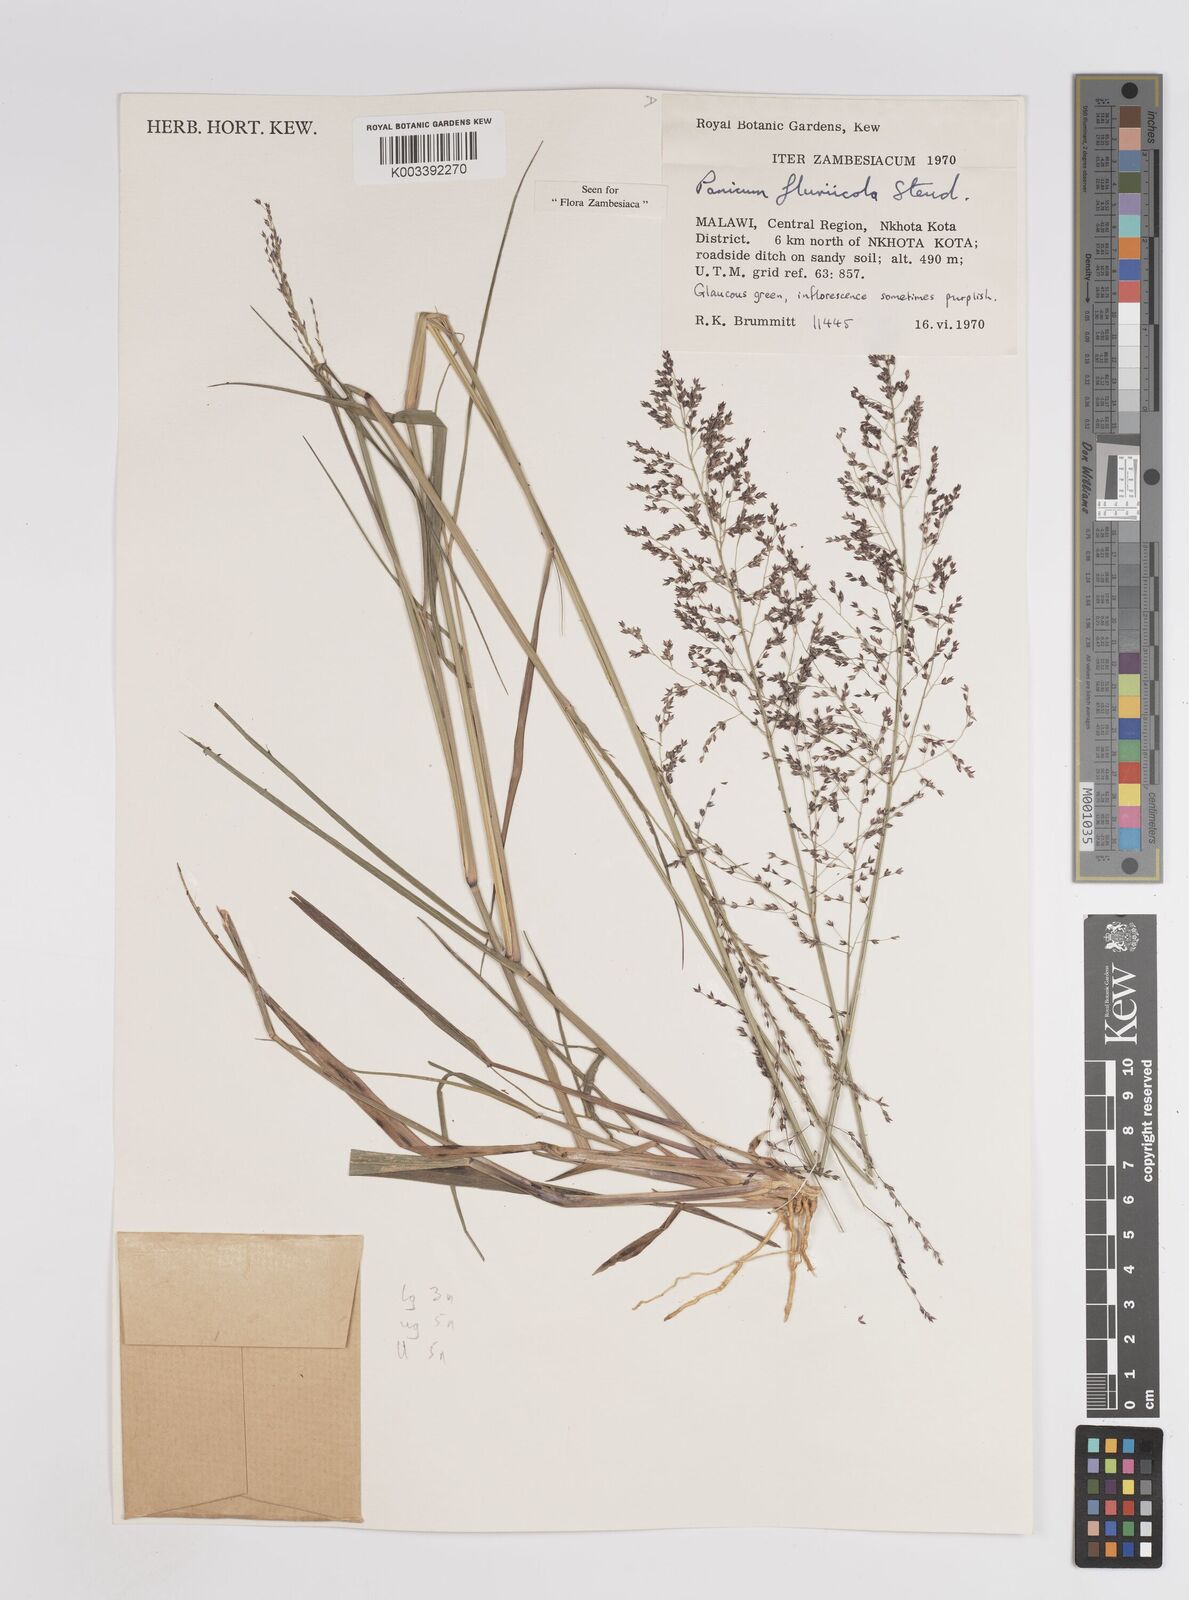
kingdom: Plantae
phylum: Tracheophyta
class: Liliopsida
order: Poales
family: Poaceae
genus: Panicum
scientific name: Panicum fluviicola
